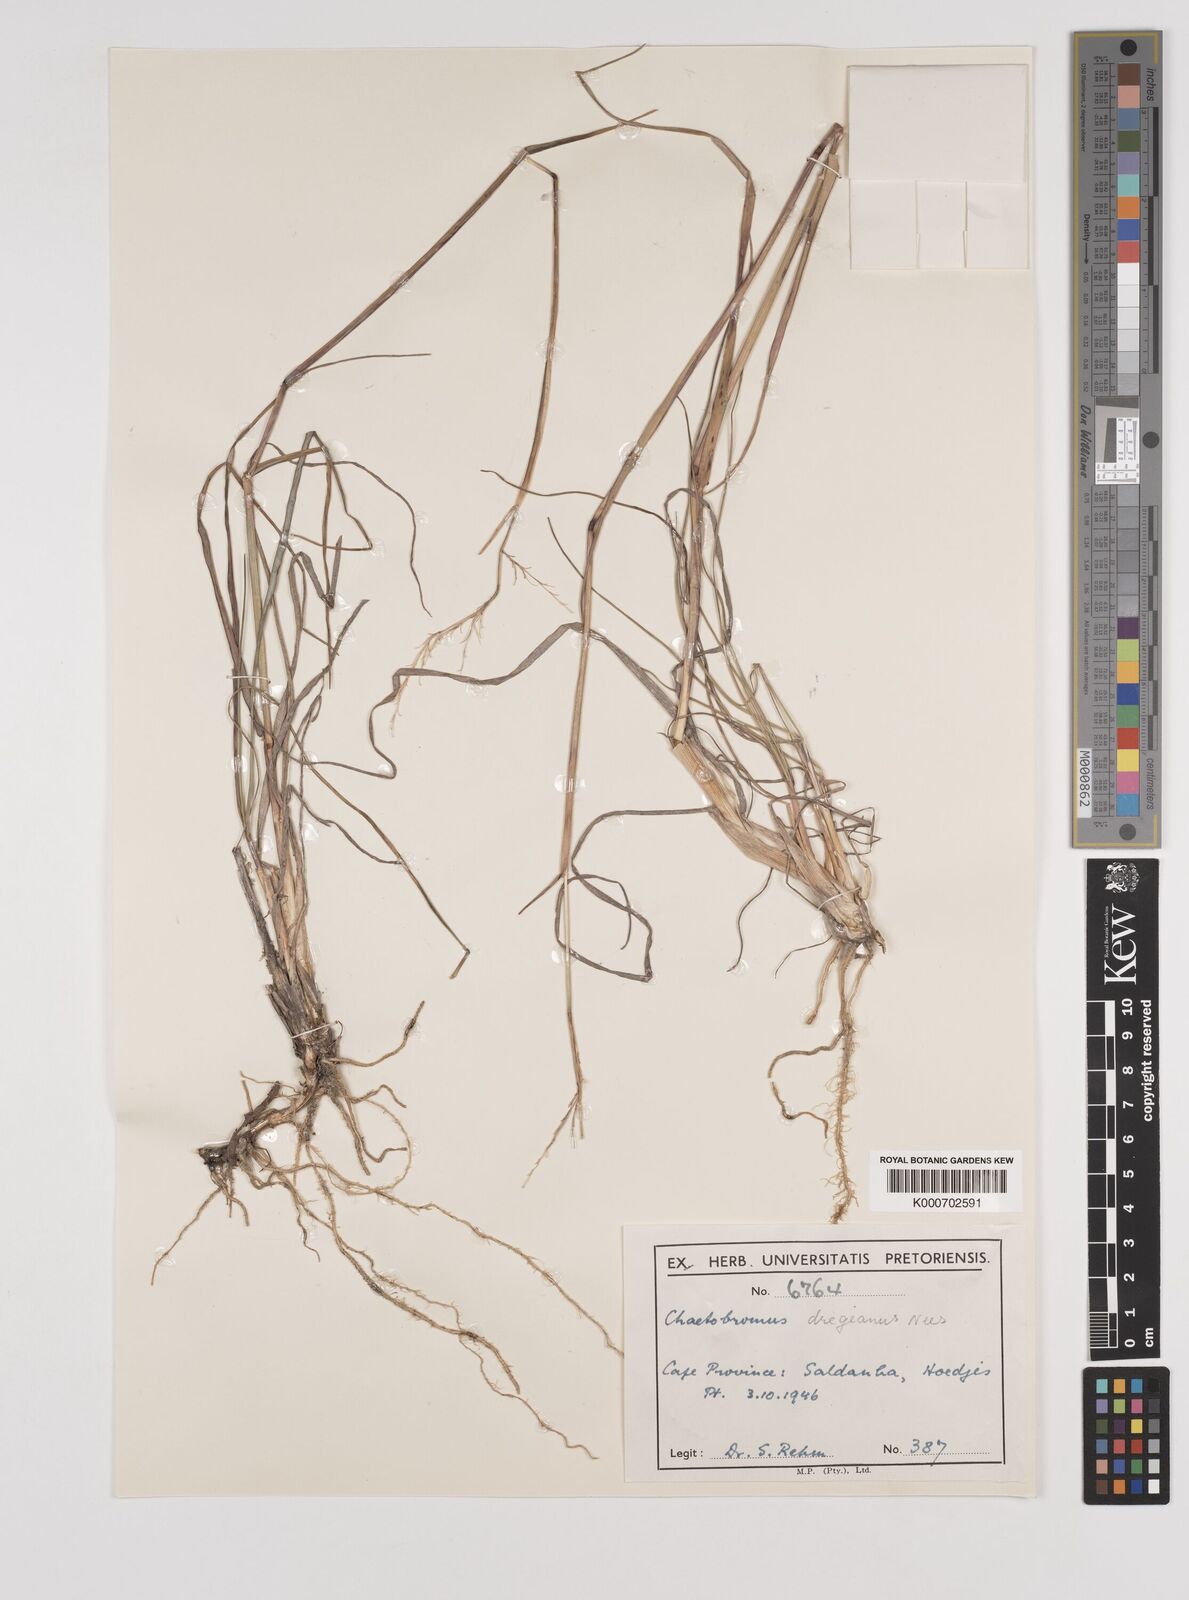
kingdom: Plantae
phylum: Tracheophyta
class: Liliopsida
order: Poales
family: Poaceae
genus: Chaetobromus
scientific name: Chaetobromus involucratus
